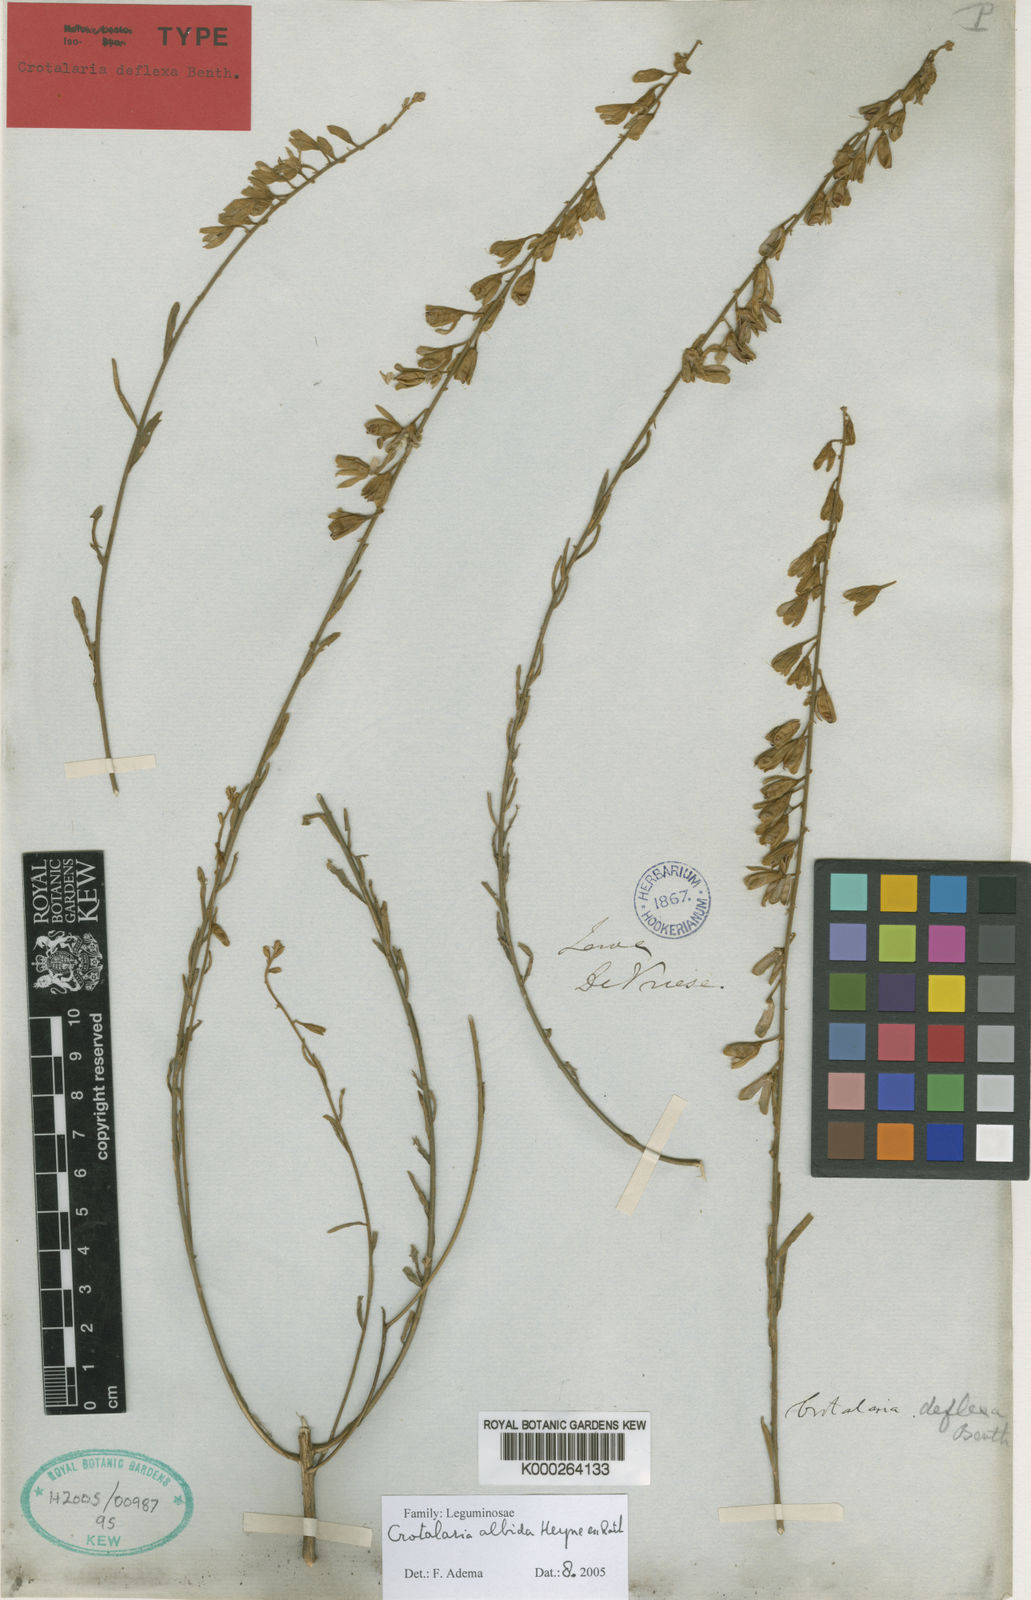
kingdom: Plantae
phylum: Tracheophyta
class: Magnoliopsida
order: Fabales
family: Fabaceae
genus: Crotalaria
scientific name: Crotalaria albida
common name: Taiwan crotalaria
